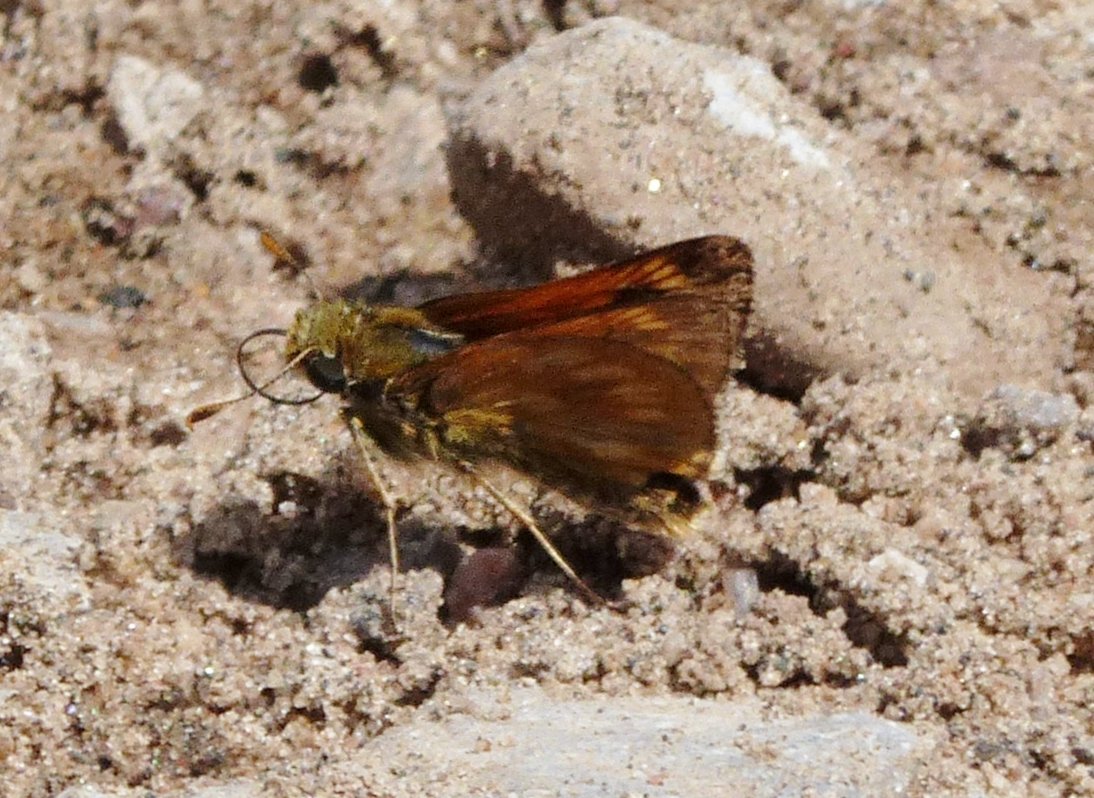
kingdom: Animalia
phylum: Arthropoda
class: Insecta
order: Lepidoptera
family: Hesperiidae
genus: Polites
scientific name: Polites
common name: Long Dash Skipper
